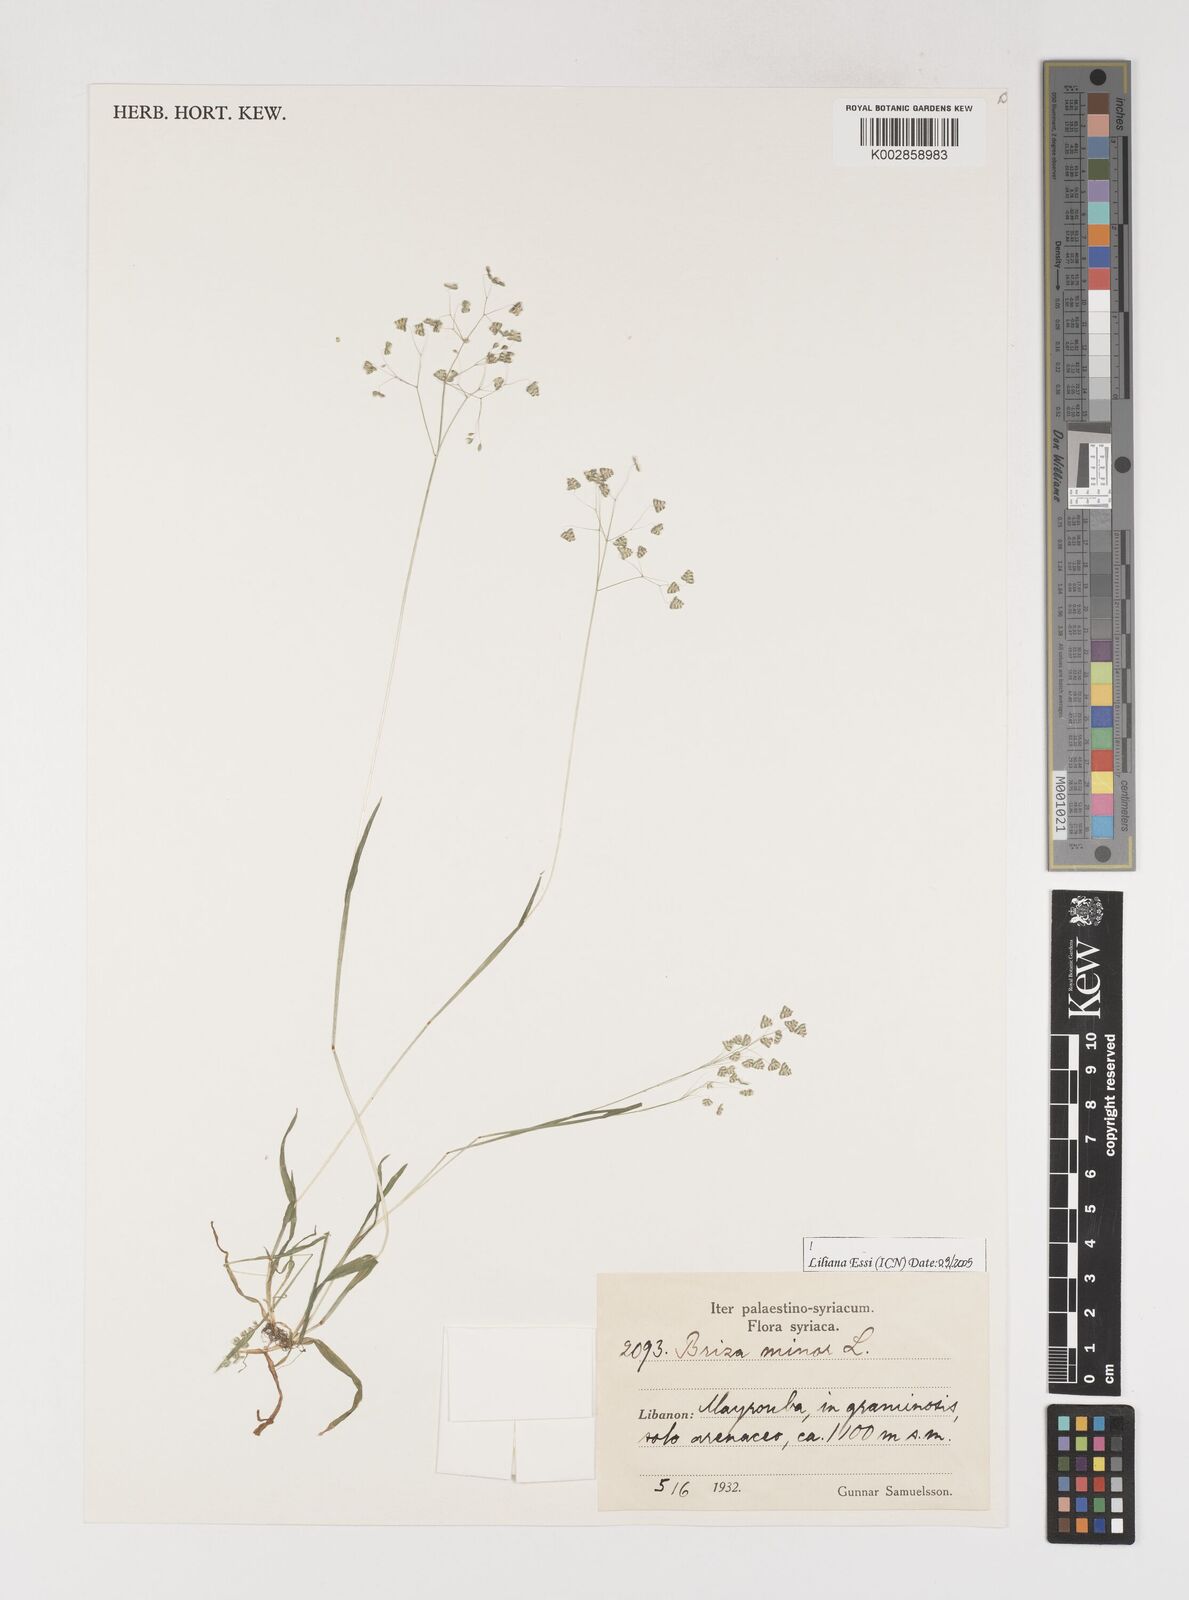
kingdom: Plantae
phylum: Tracheophyta
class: Liliopsida
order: Poales
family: Poaceae
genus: Briza
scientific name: Briza minor
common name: Lesser quaking-grass
